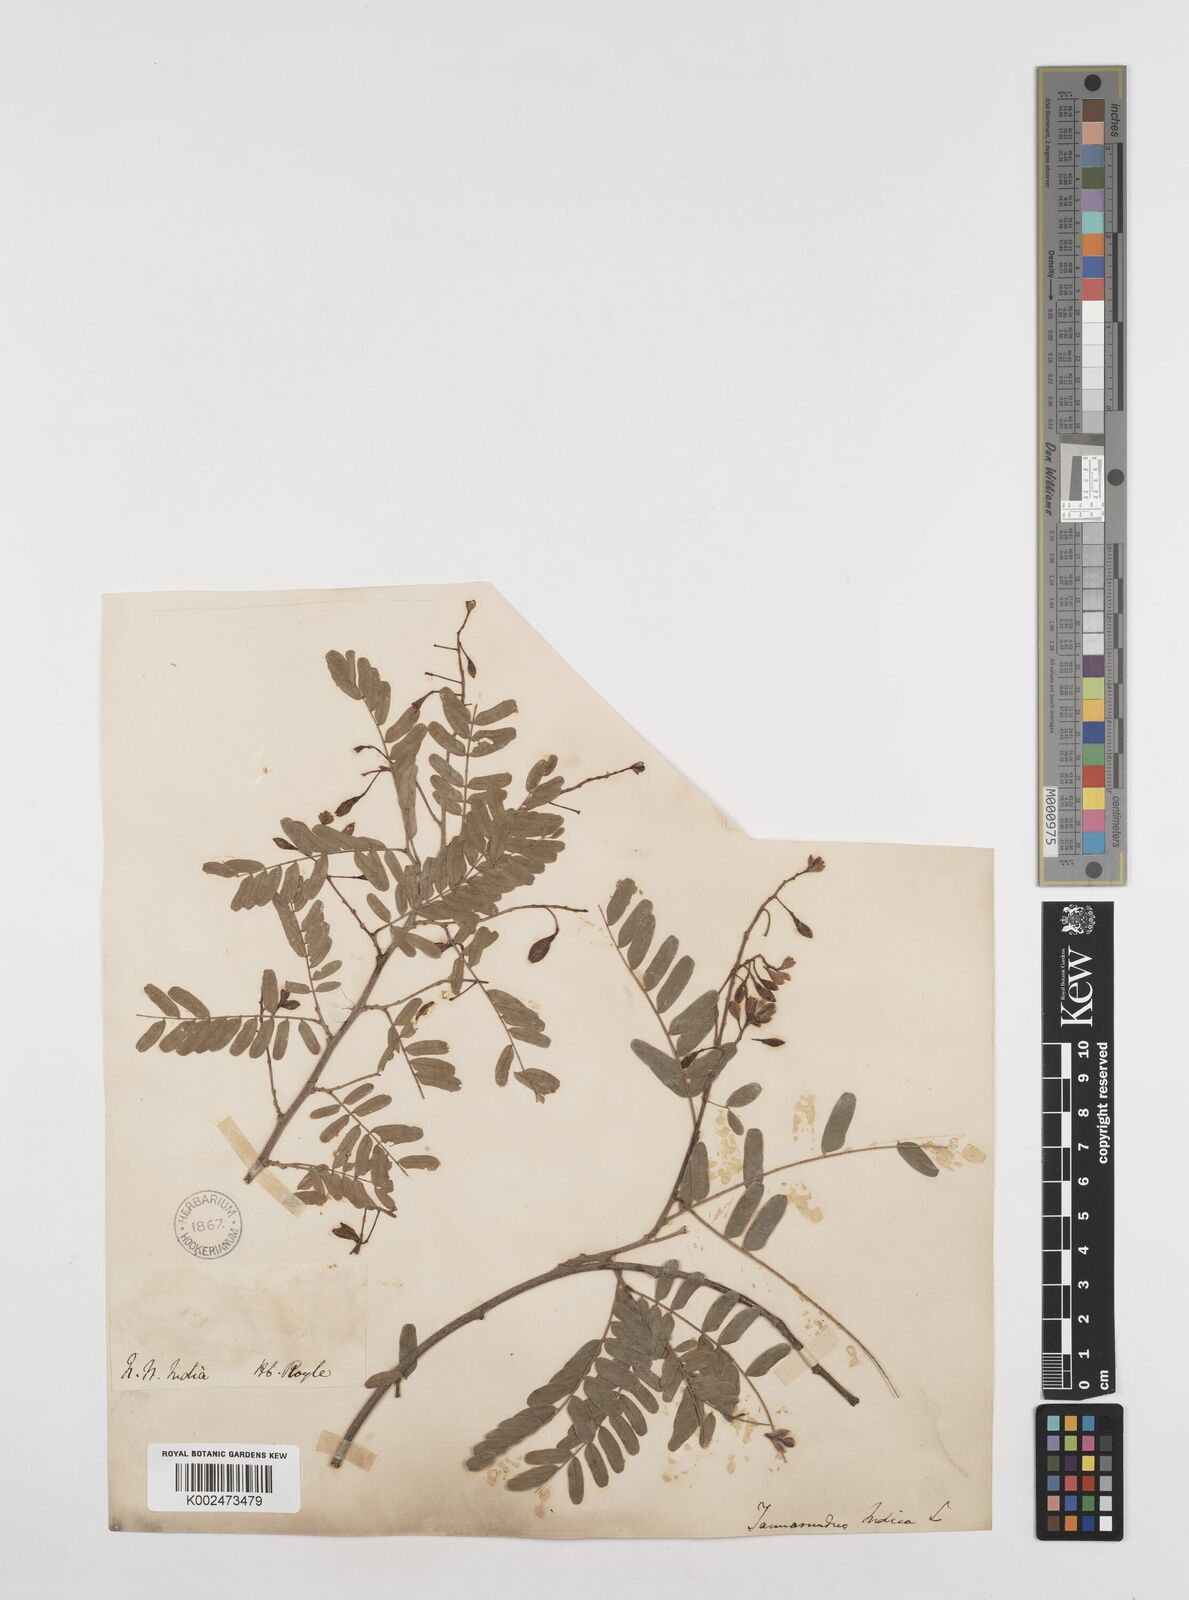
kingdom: Plantae
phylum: Tracheophyta
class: Magnoliopsida
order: Fabales
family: Fabaceae
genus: Tamarindus
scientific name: Tamarindus indica
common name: Tamarind
